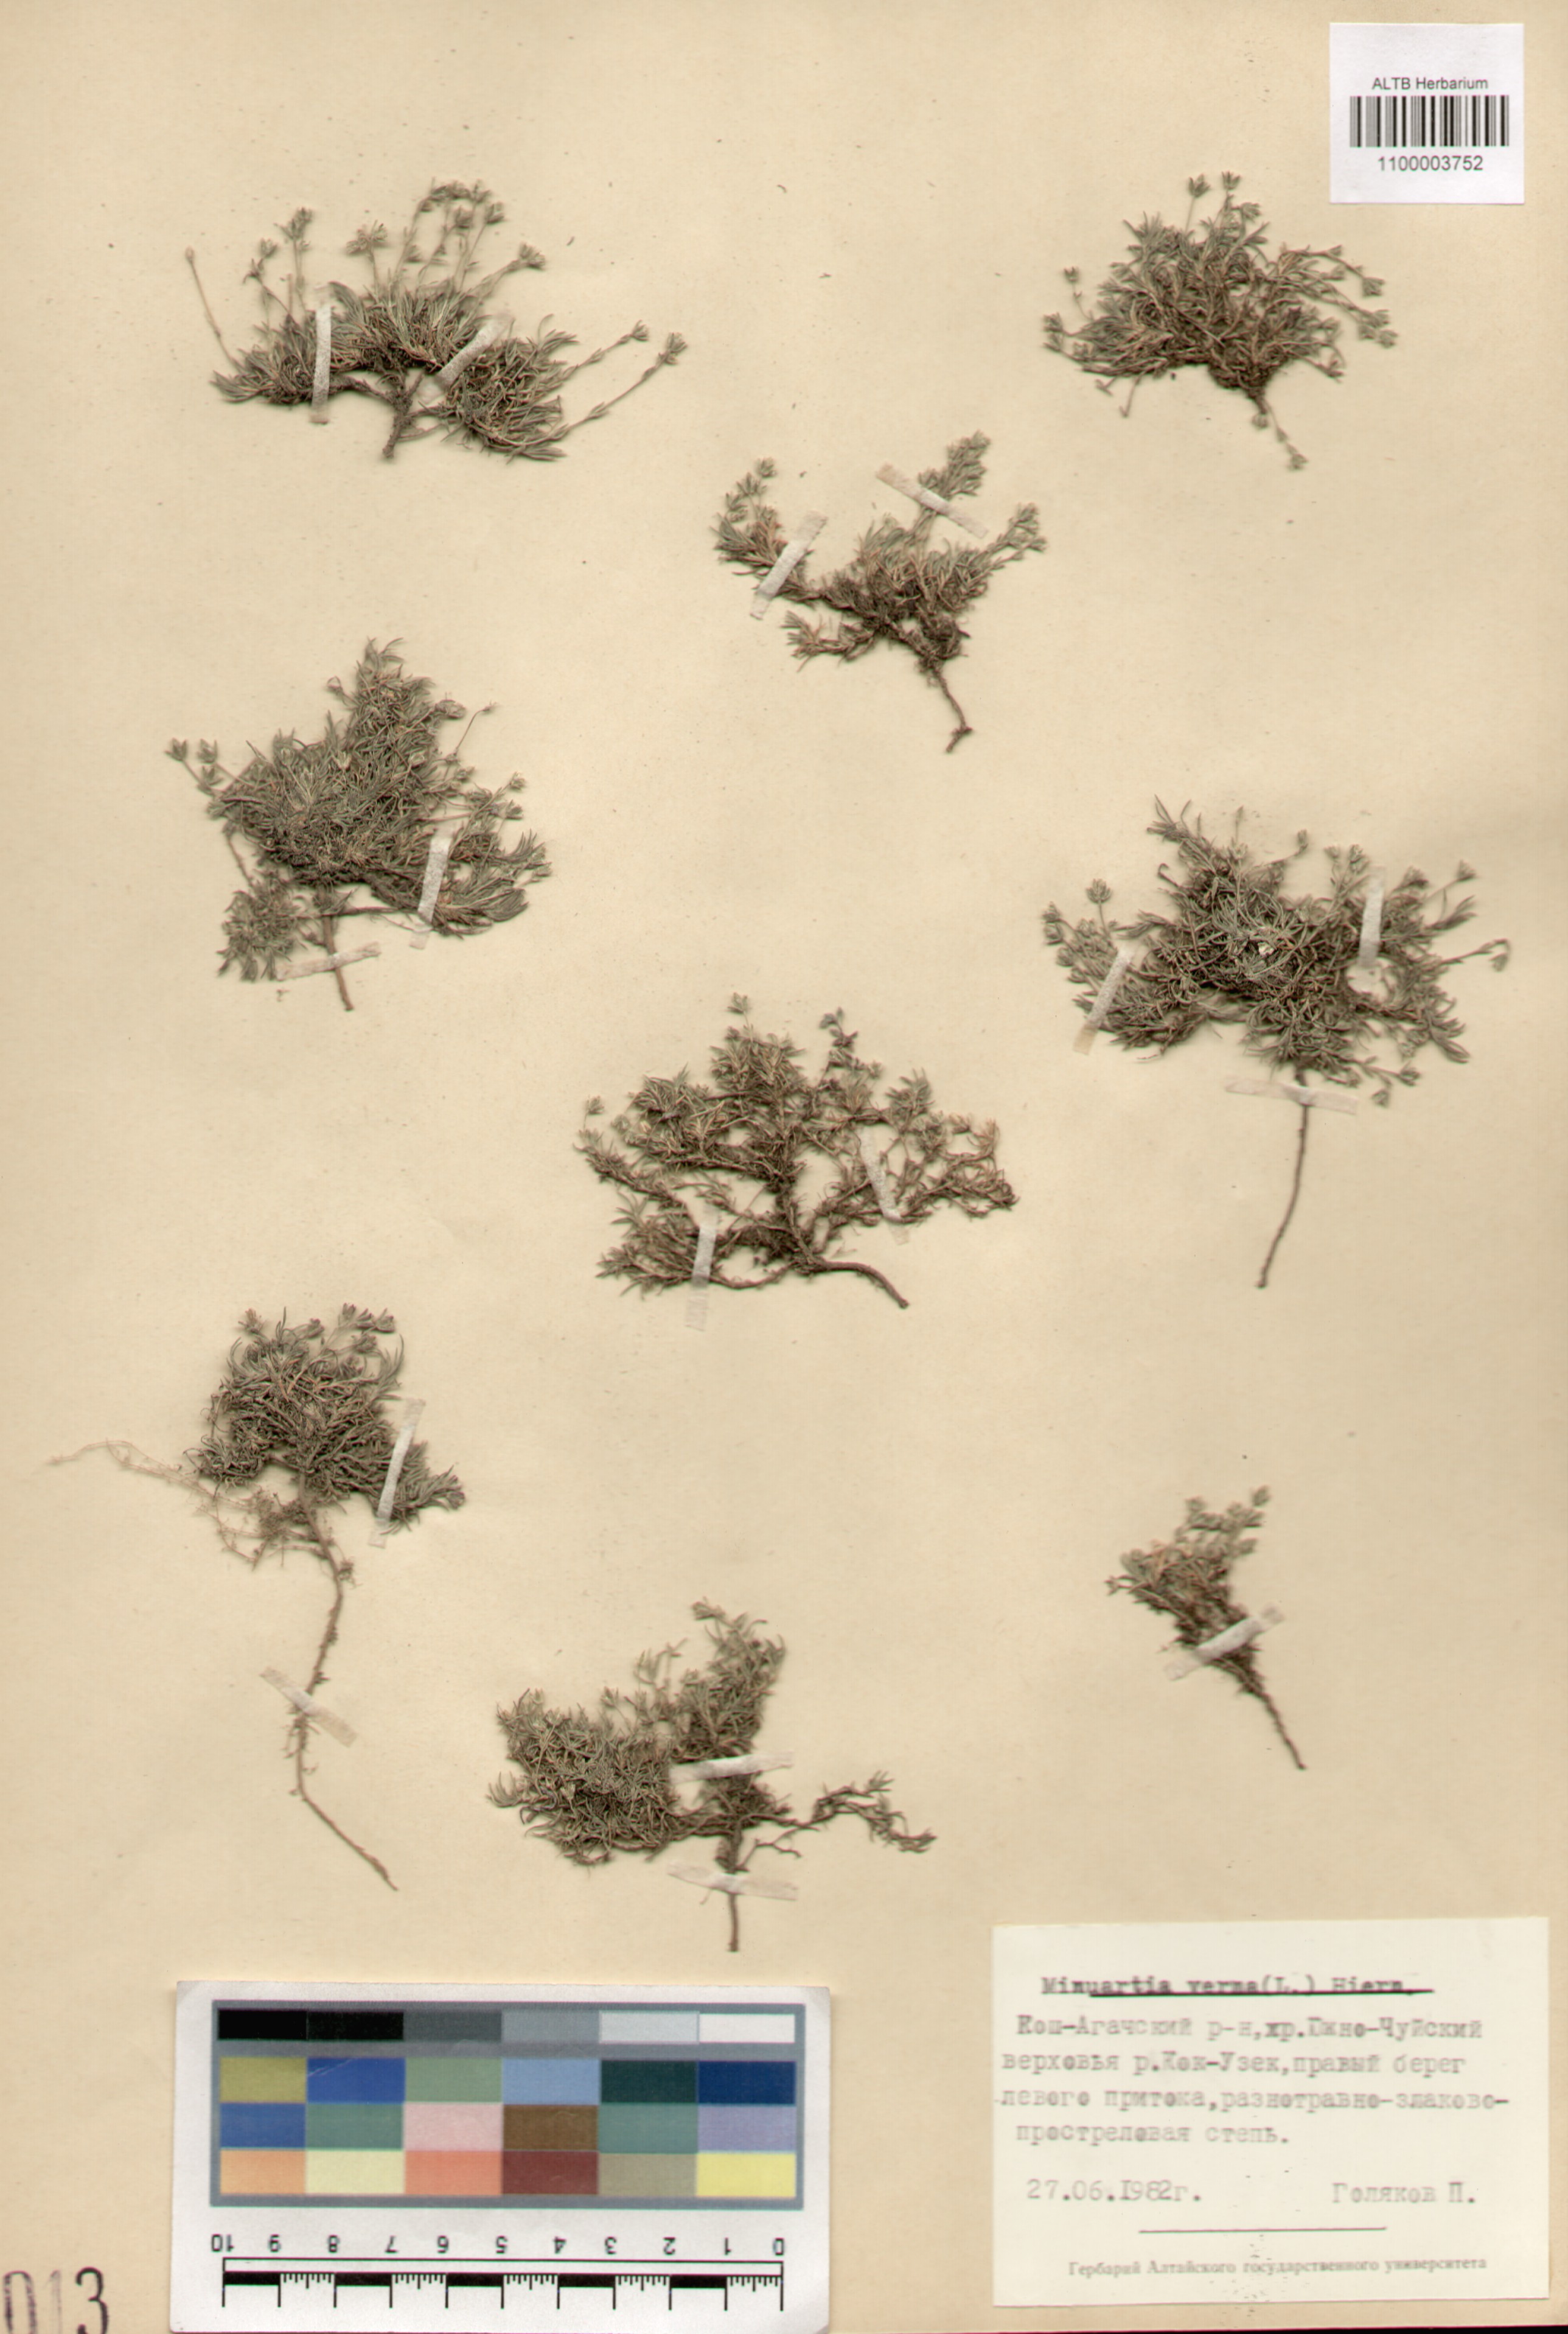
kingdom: Plantae
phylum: Tracheophyta
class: Magnoliopsida
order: Caryophyllales
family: Caryophyllaceae
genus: Sabulina
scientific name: Sabulina verna
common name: Spring sandwort
